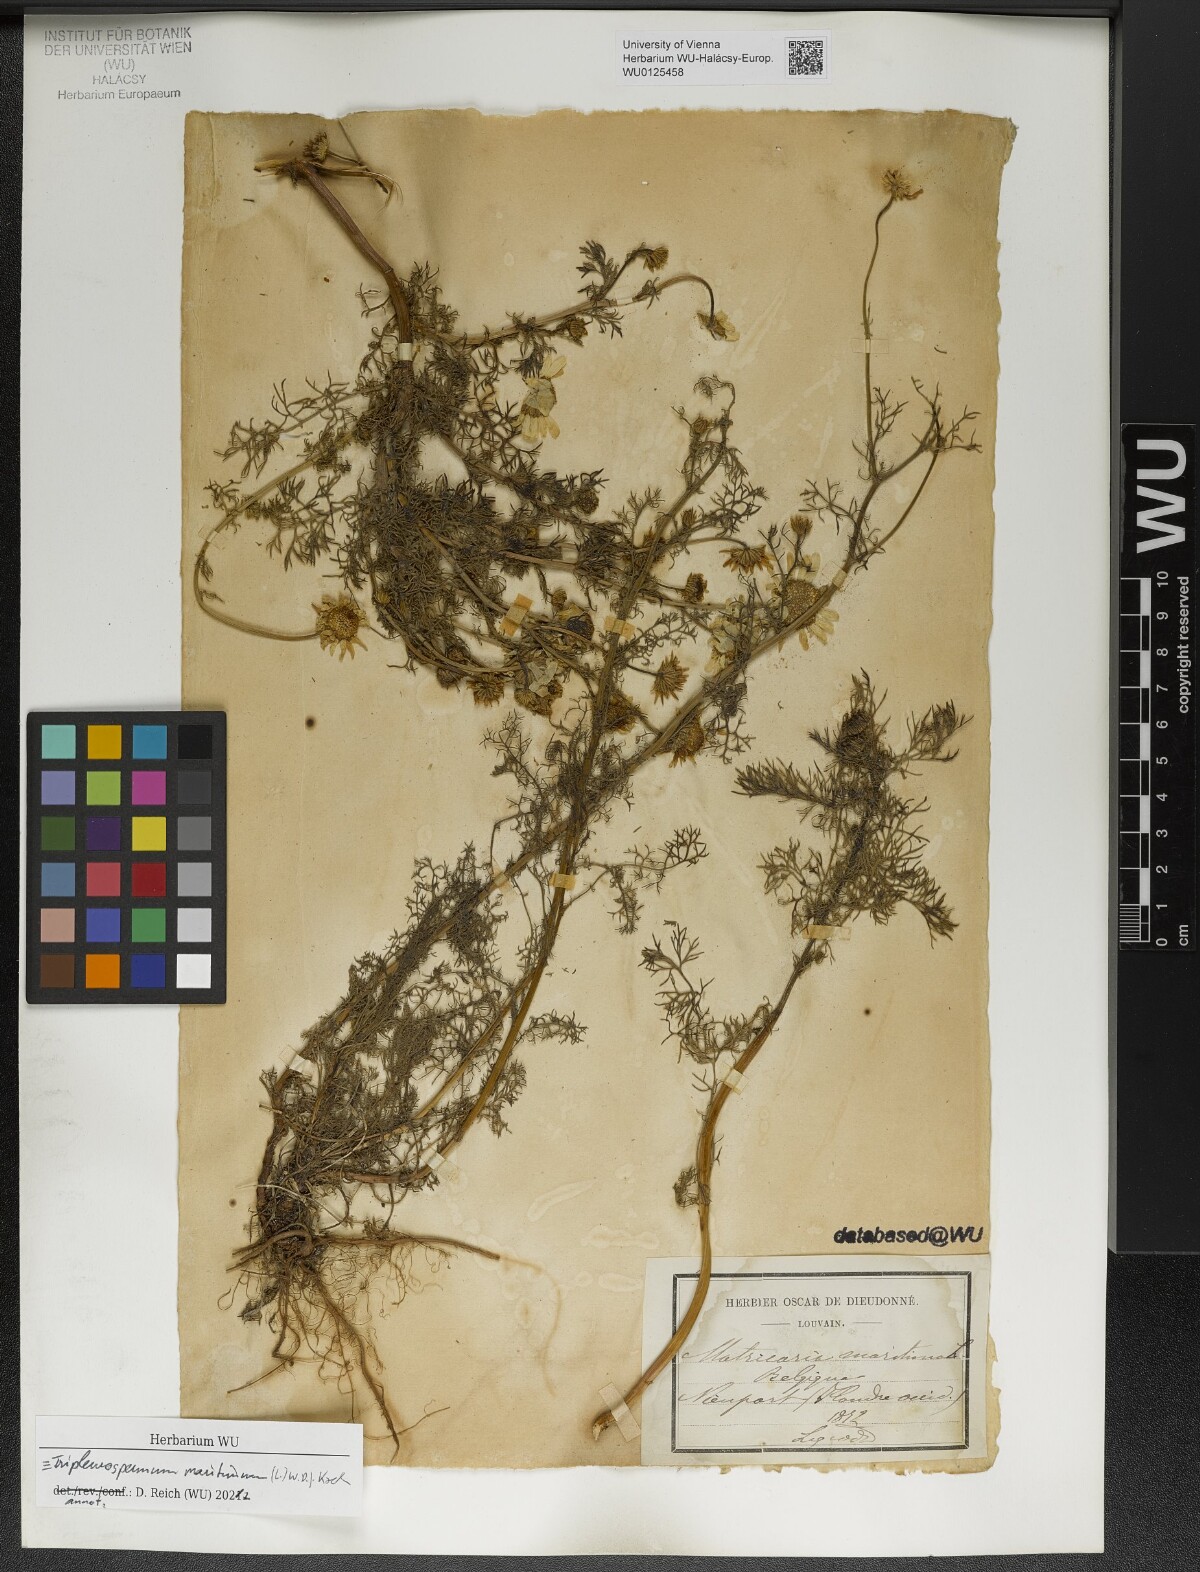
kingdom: Plantae
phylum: Tracheophyta
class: Magnoliopsida
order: Asterales
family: Asteraceae
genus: Tripleurospermum
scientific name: Tripleurospermum maritimum
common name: Sea mayweed
